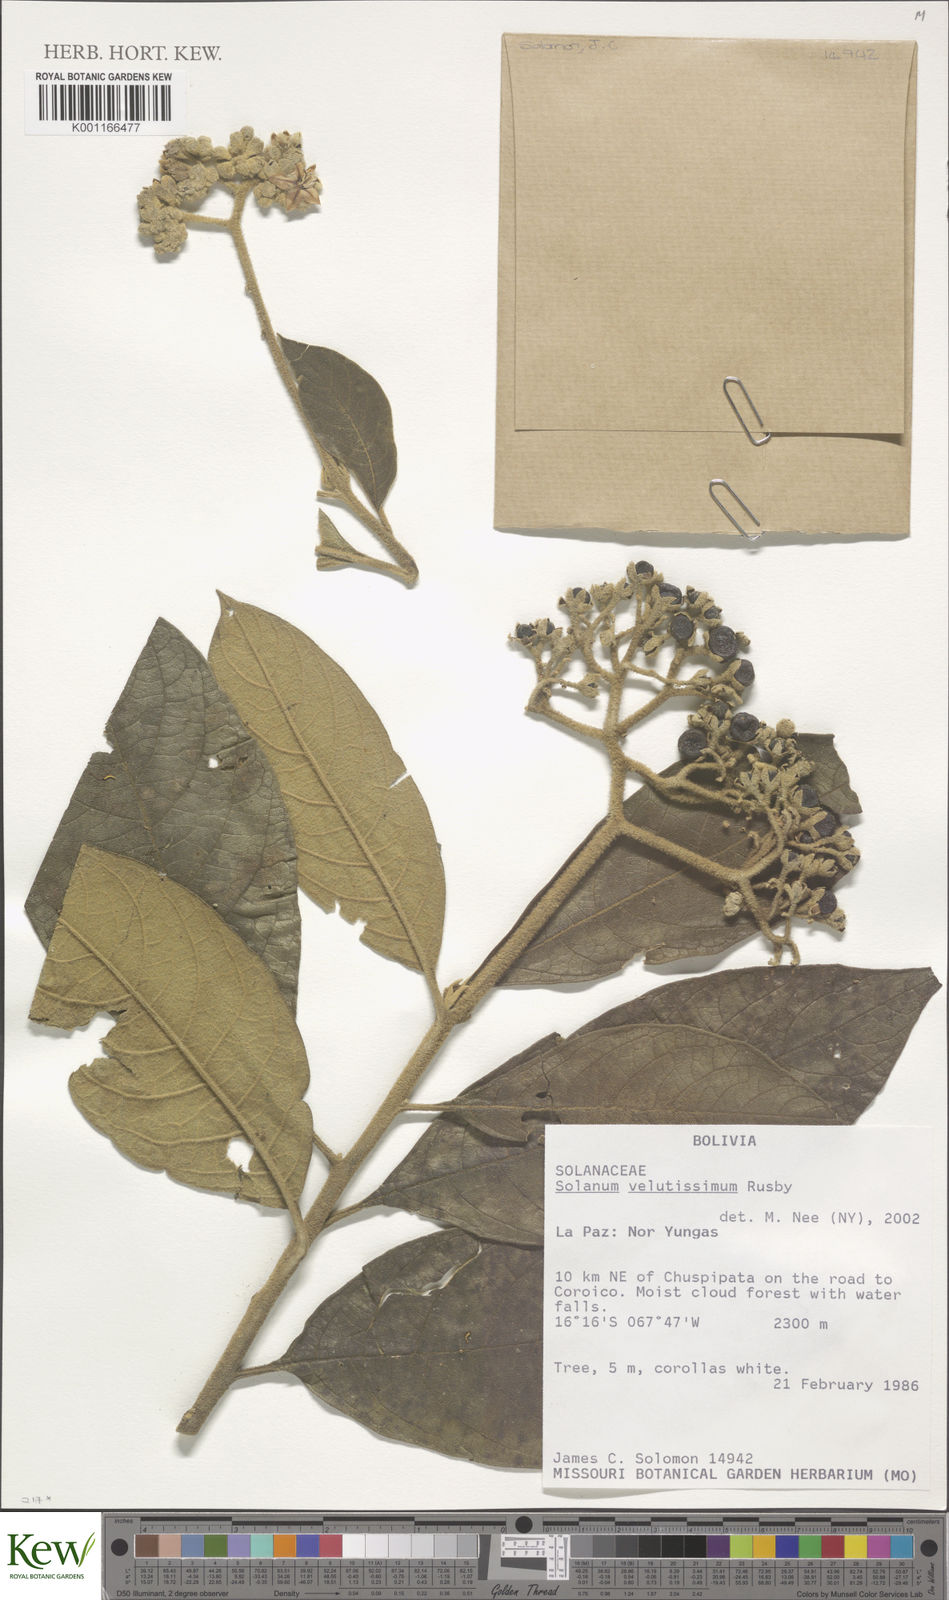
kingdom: Plantae
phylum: Tracheophyta
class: Magnoliopsida
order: Solanales
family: Solanaceae
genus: Solanum
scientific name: Solanum velutissimum
